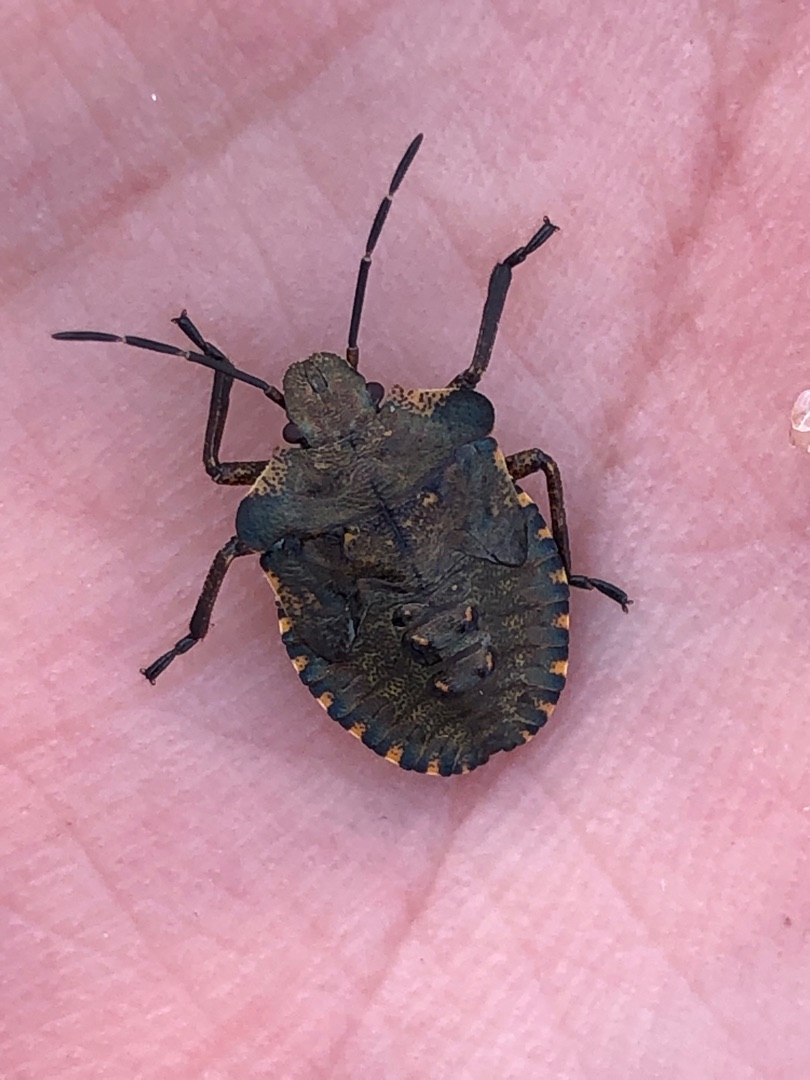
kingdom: Animalia
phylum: Arthropoda
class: Insecta
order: Hemiptera
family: Pentatomidae
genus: Pentatoma
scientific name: Pentatoma rufipes
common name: Rødbenet bredtæge
